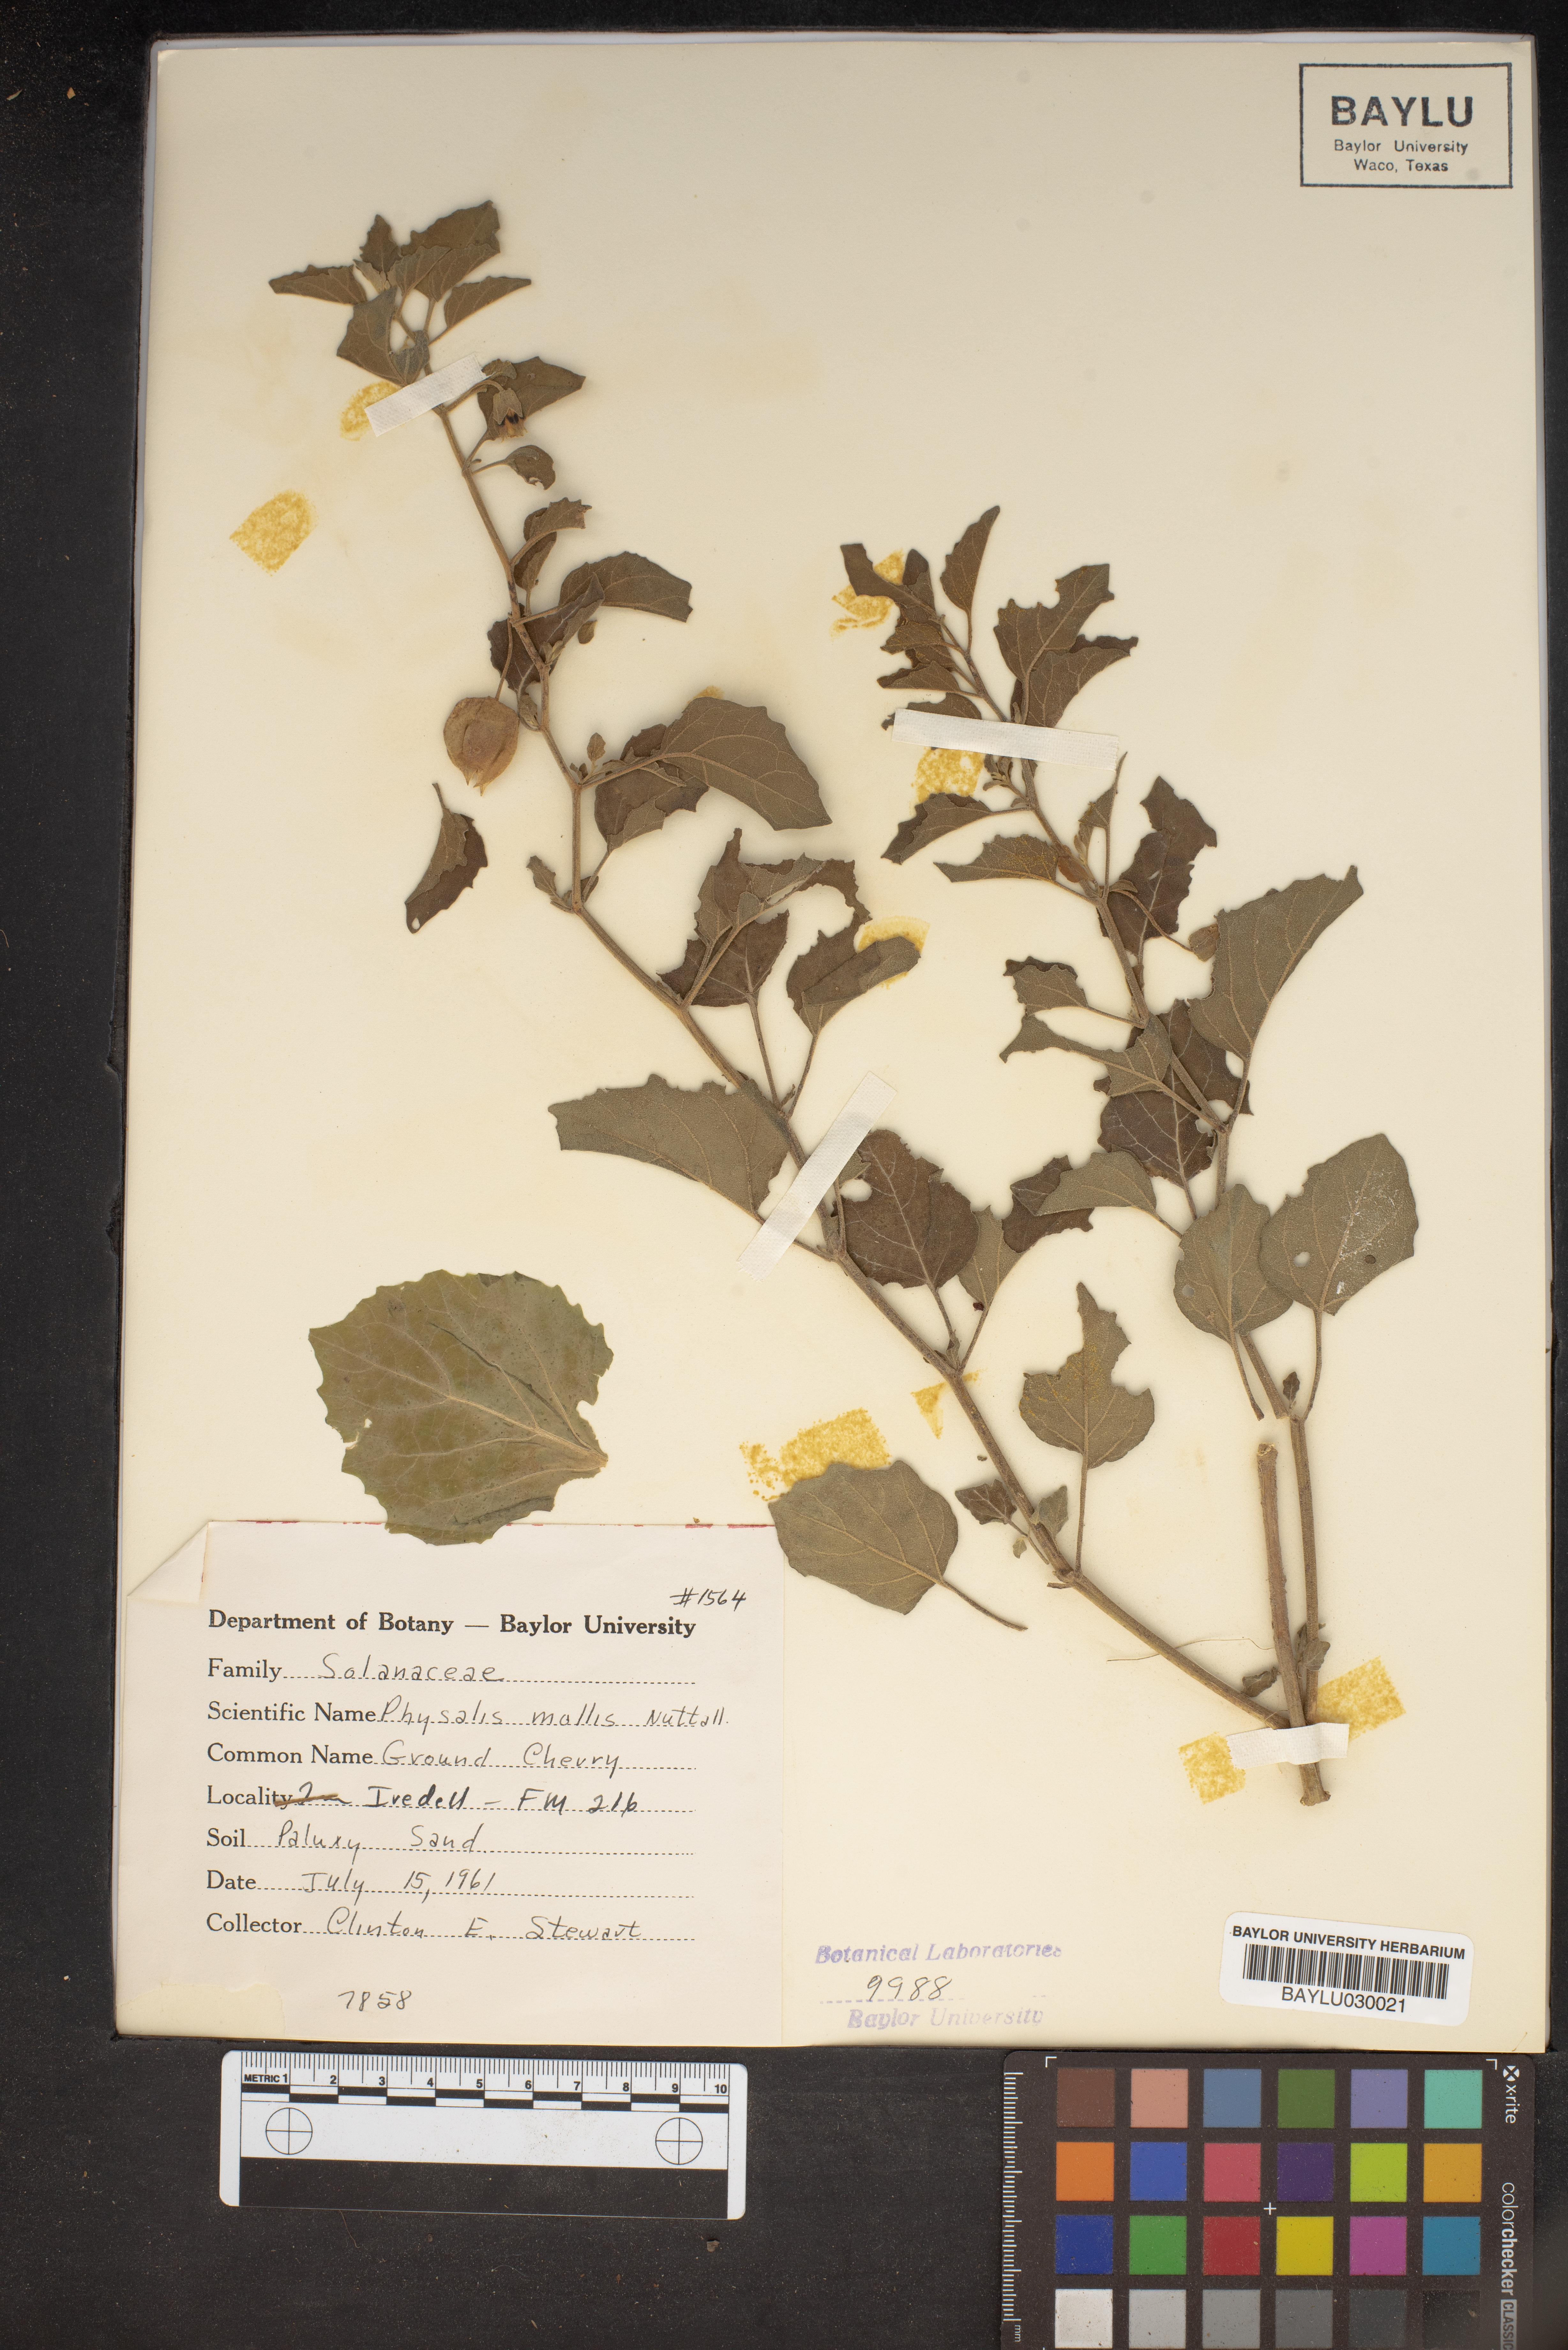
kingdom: Plantae
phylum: Tracheophyta
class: Magnoliopsida
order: Solanales
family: Solanaceae
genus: Physalis
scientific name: Physalis mollis
